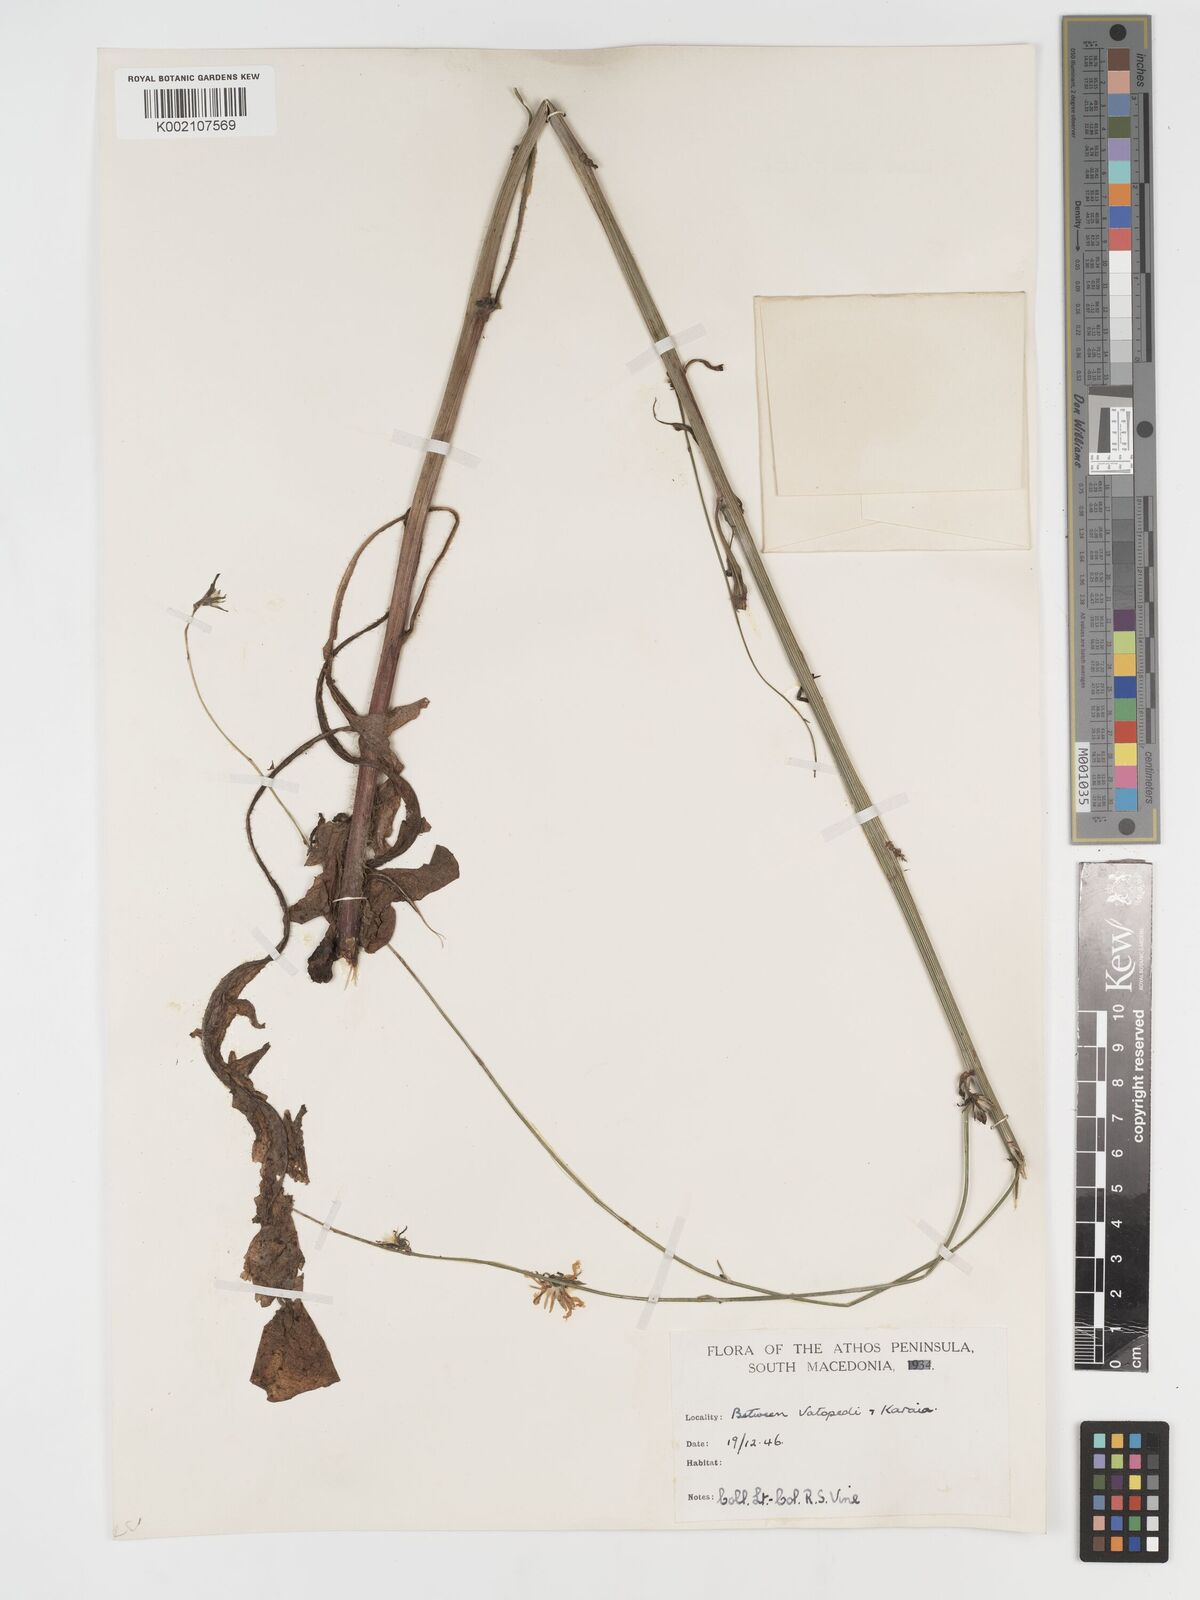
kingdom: Plantae
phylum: Tracheophyta
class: Magnoliopsida
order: Asterales
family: Asteraceae
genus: Crepis
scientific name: Crepis pulchra
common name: Hawk's-beard
